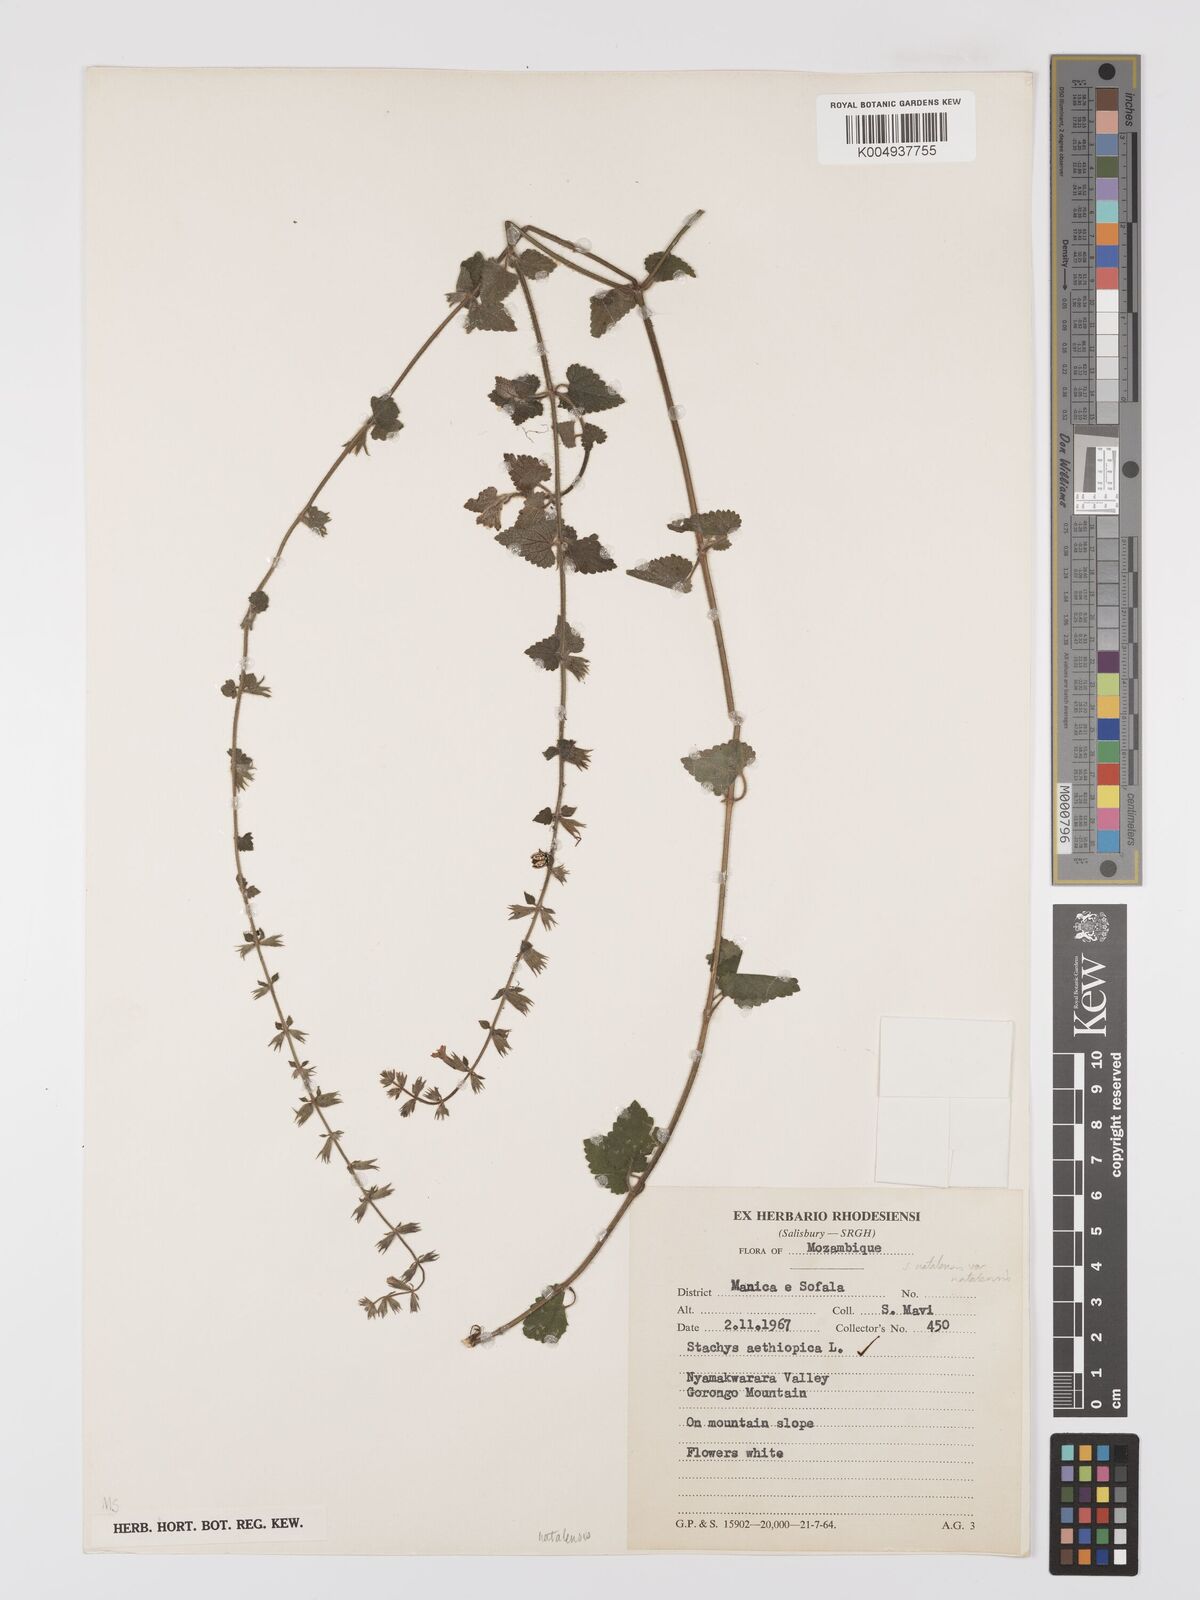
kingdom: Plantae
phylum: Tracheophyta
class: Magnoliopsida
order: Lamiales
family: Lamiaceae
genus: Stachys
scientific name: Stachys natalensis
